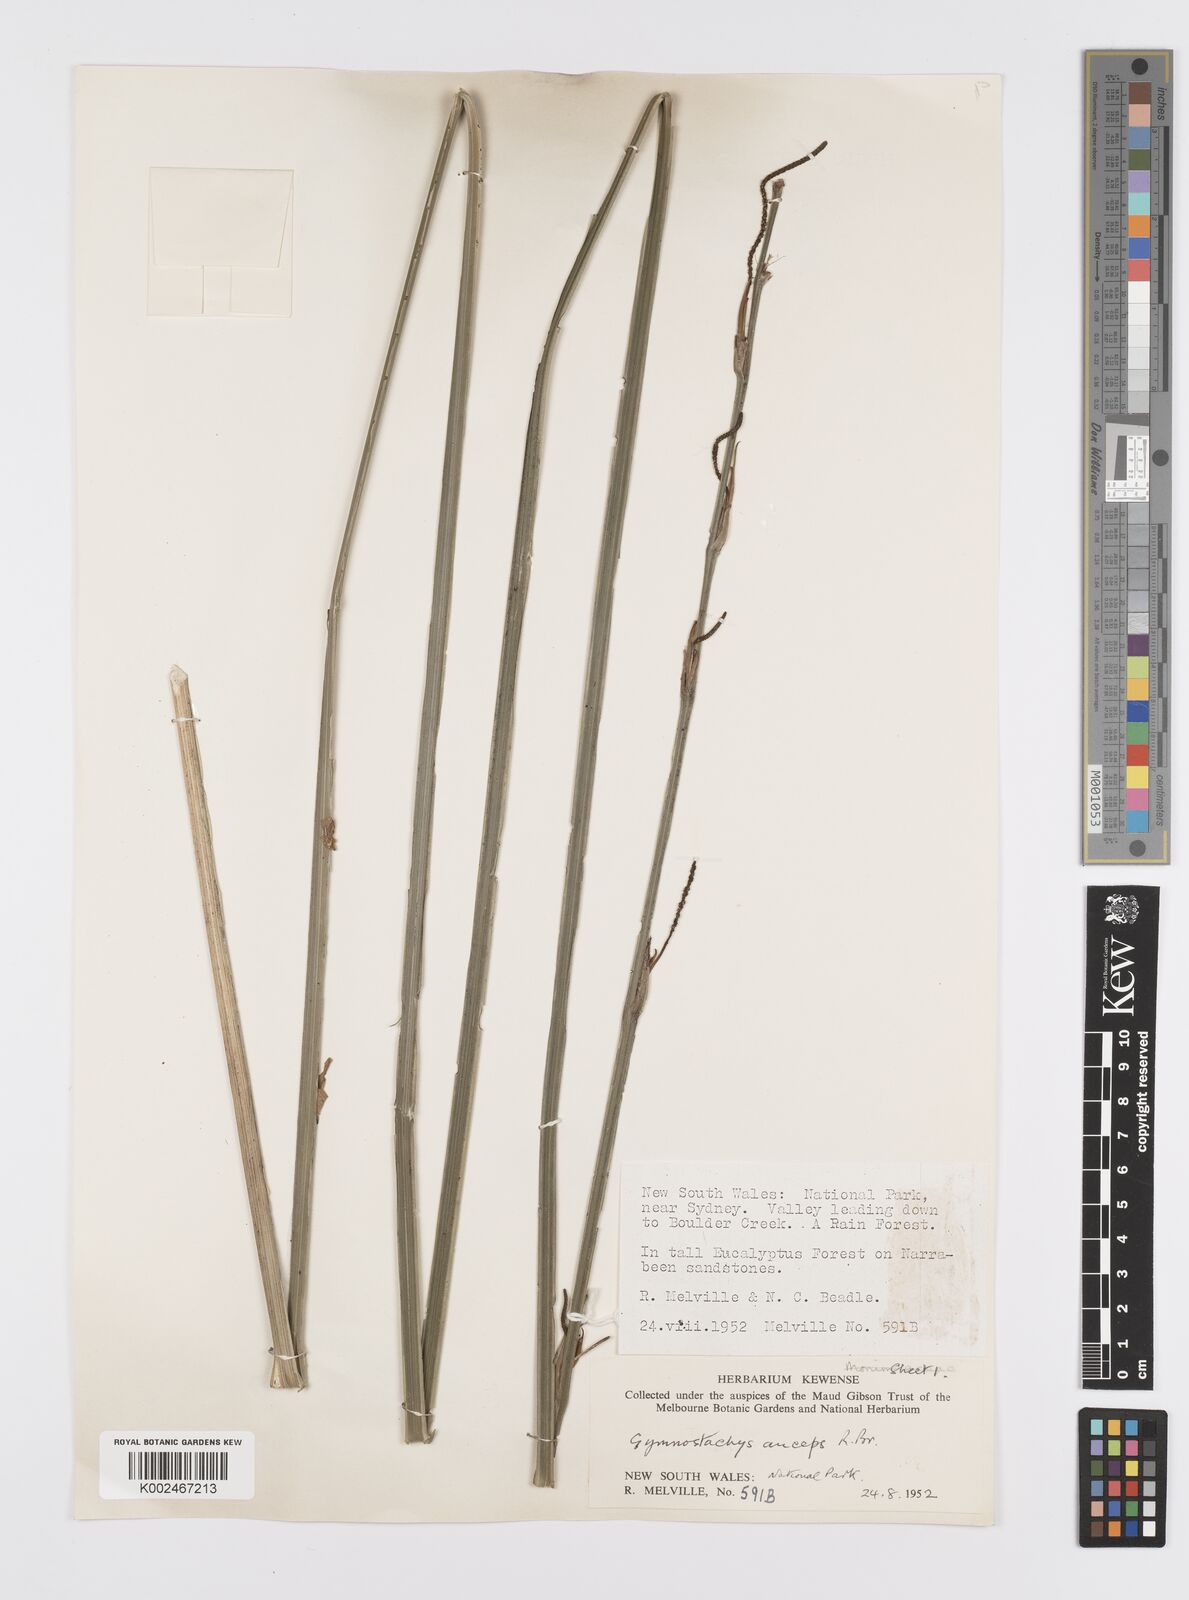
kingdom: Plantae
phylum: Tracheophyta
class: Liliopsida
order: Alismatales
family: Araceae
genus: Gymnostachys
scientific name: Gymnostachys anceps
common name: Settler's-flax
